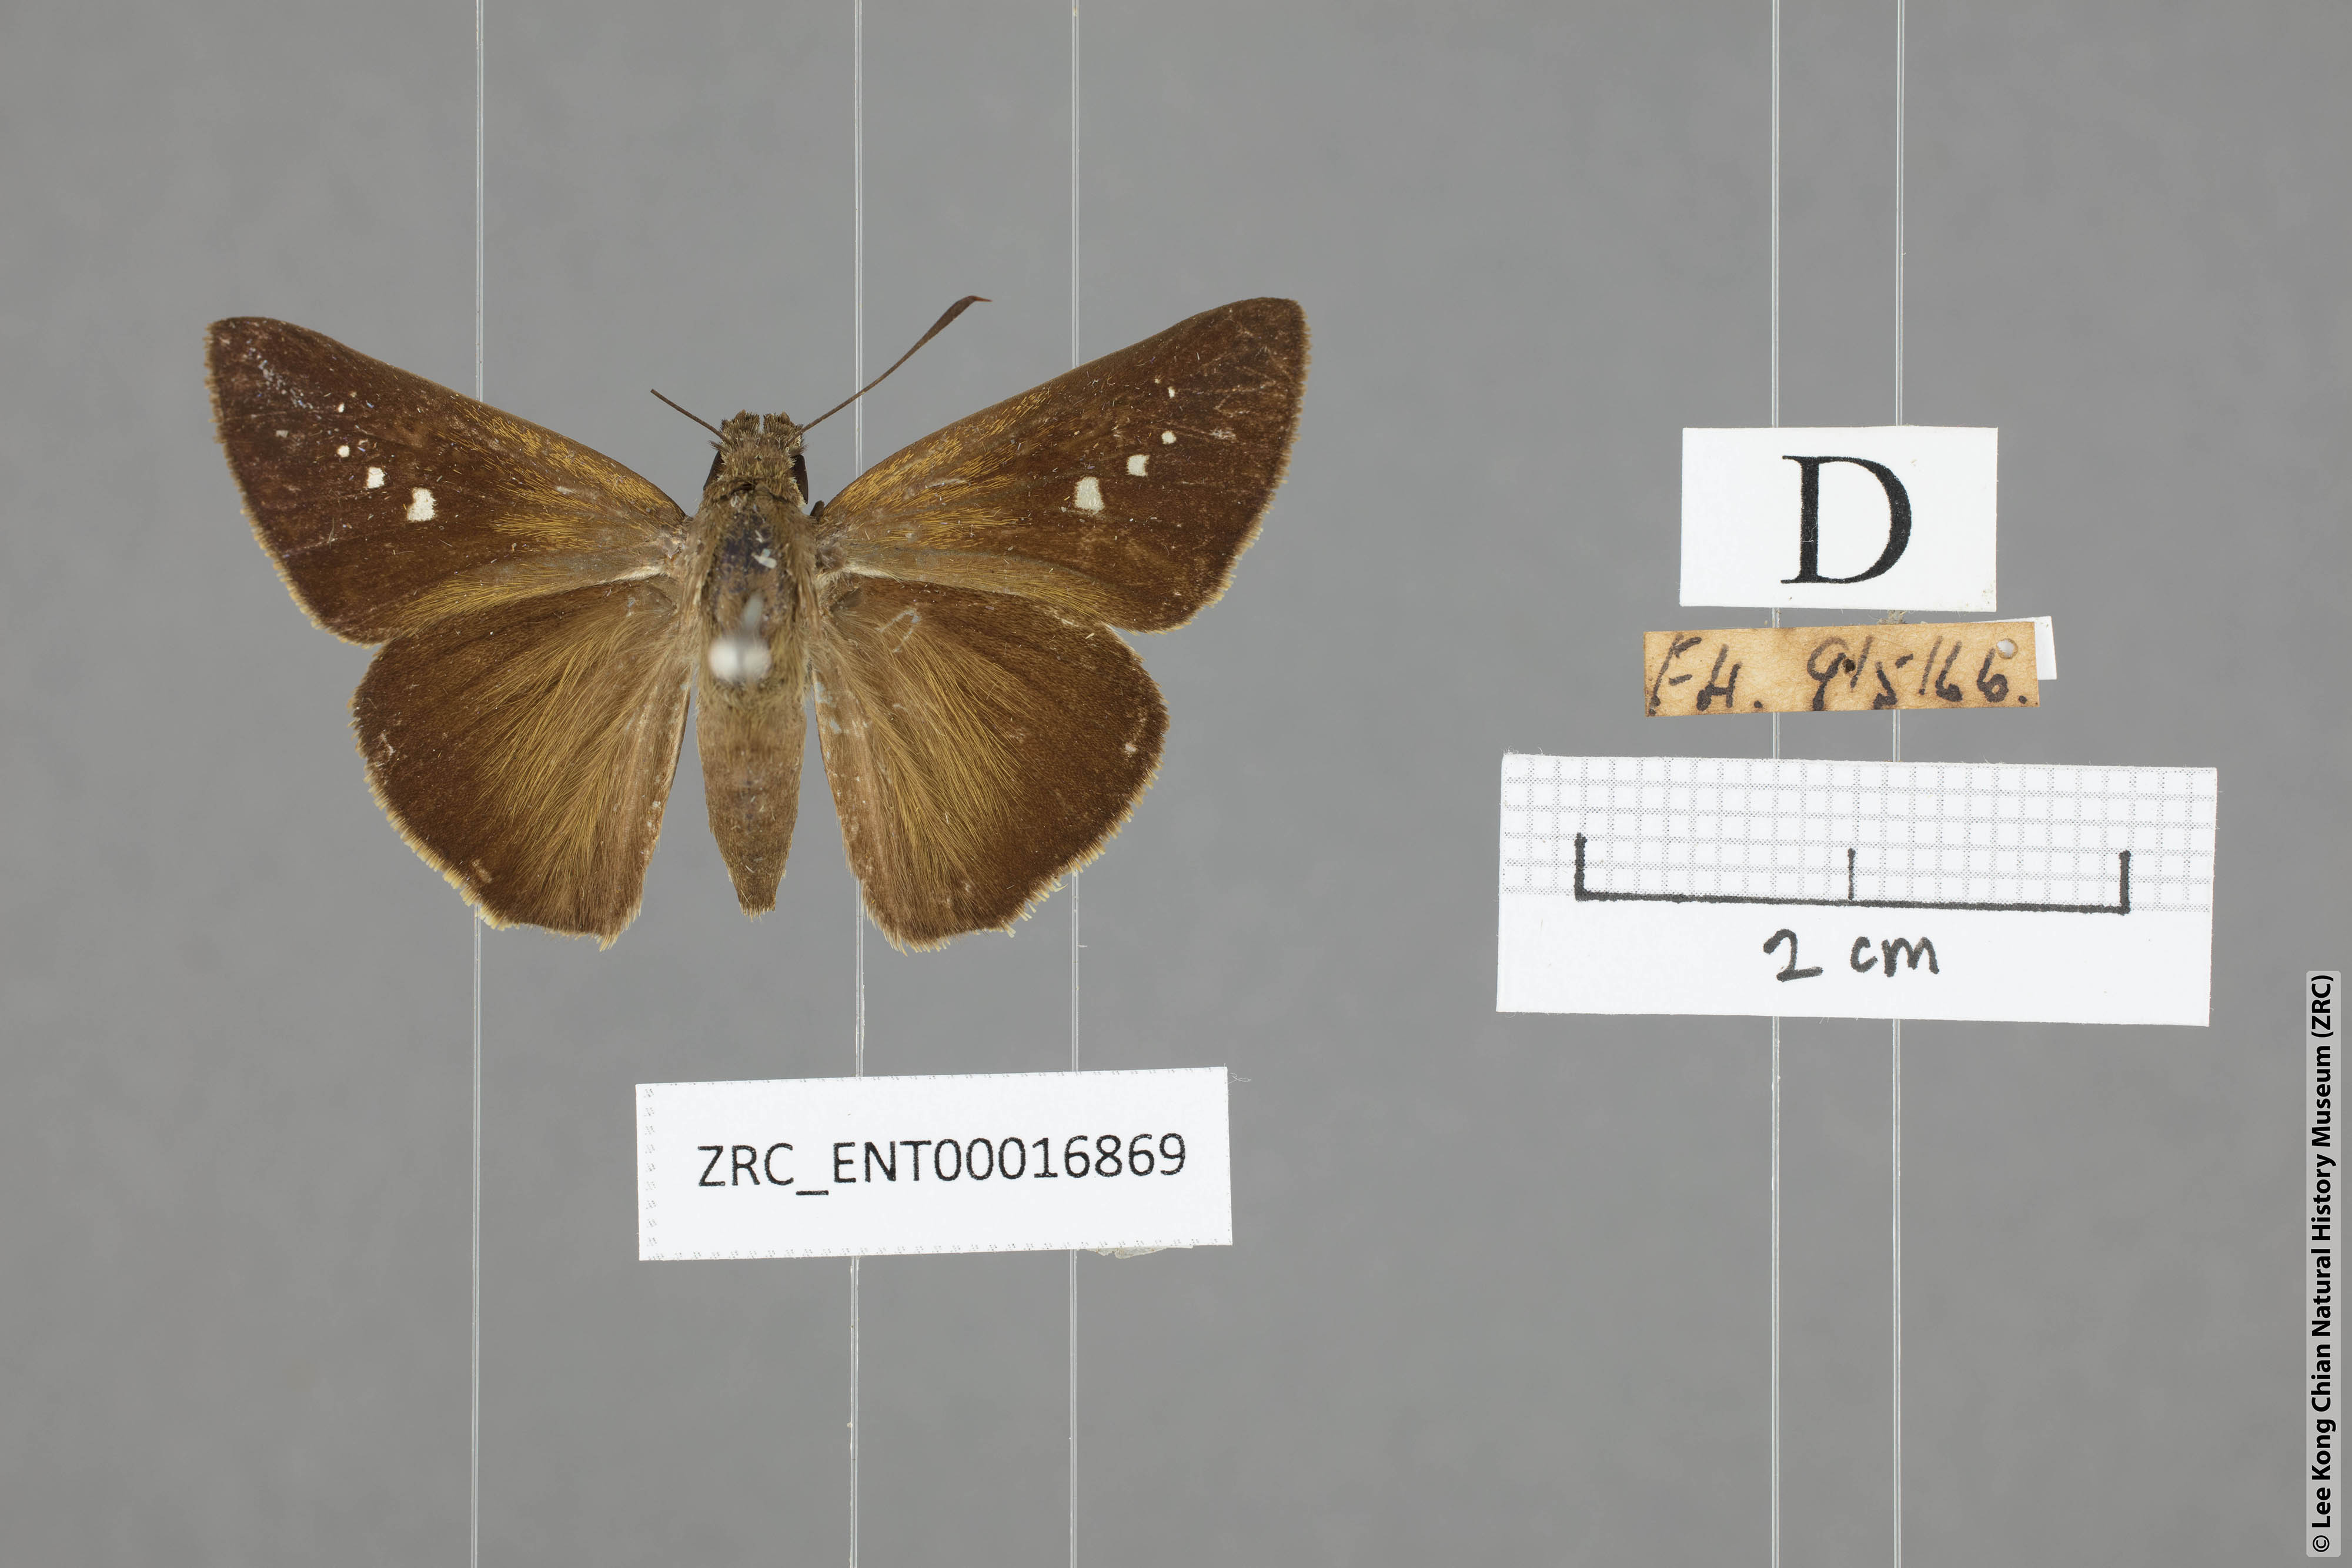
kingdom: Animalia
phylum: Arthropoda
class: Insecta
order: Lepidoptera
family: Hesperiidae
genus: Caltoris
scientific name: Caltoris tulsi
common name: Purple swift
